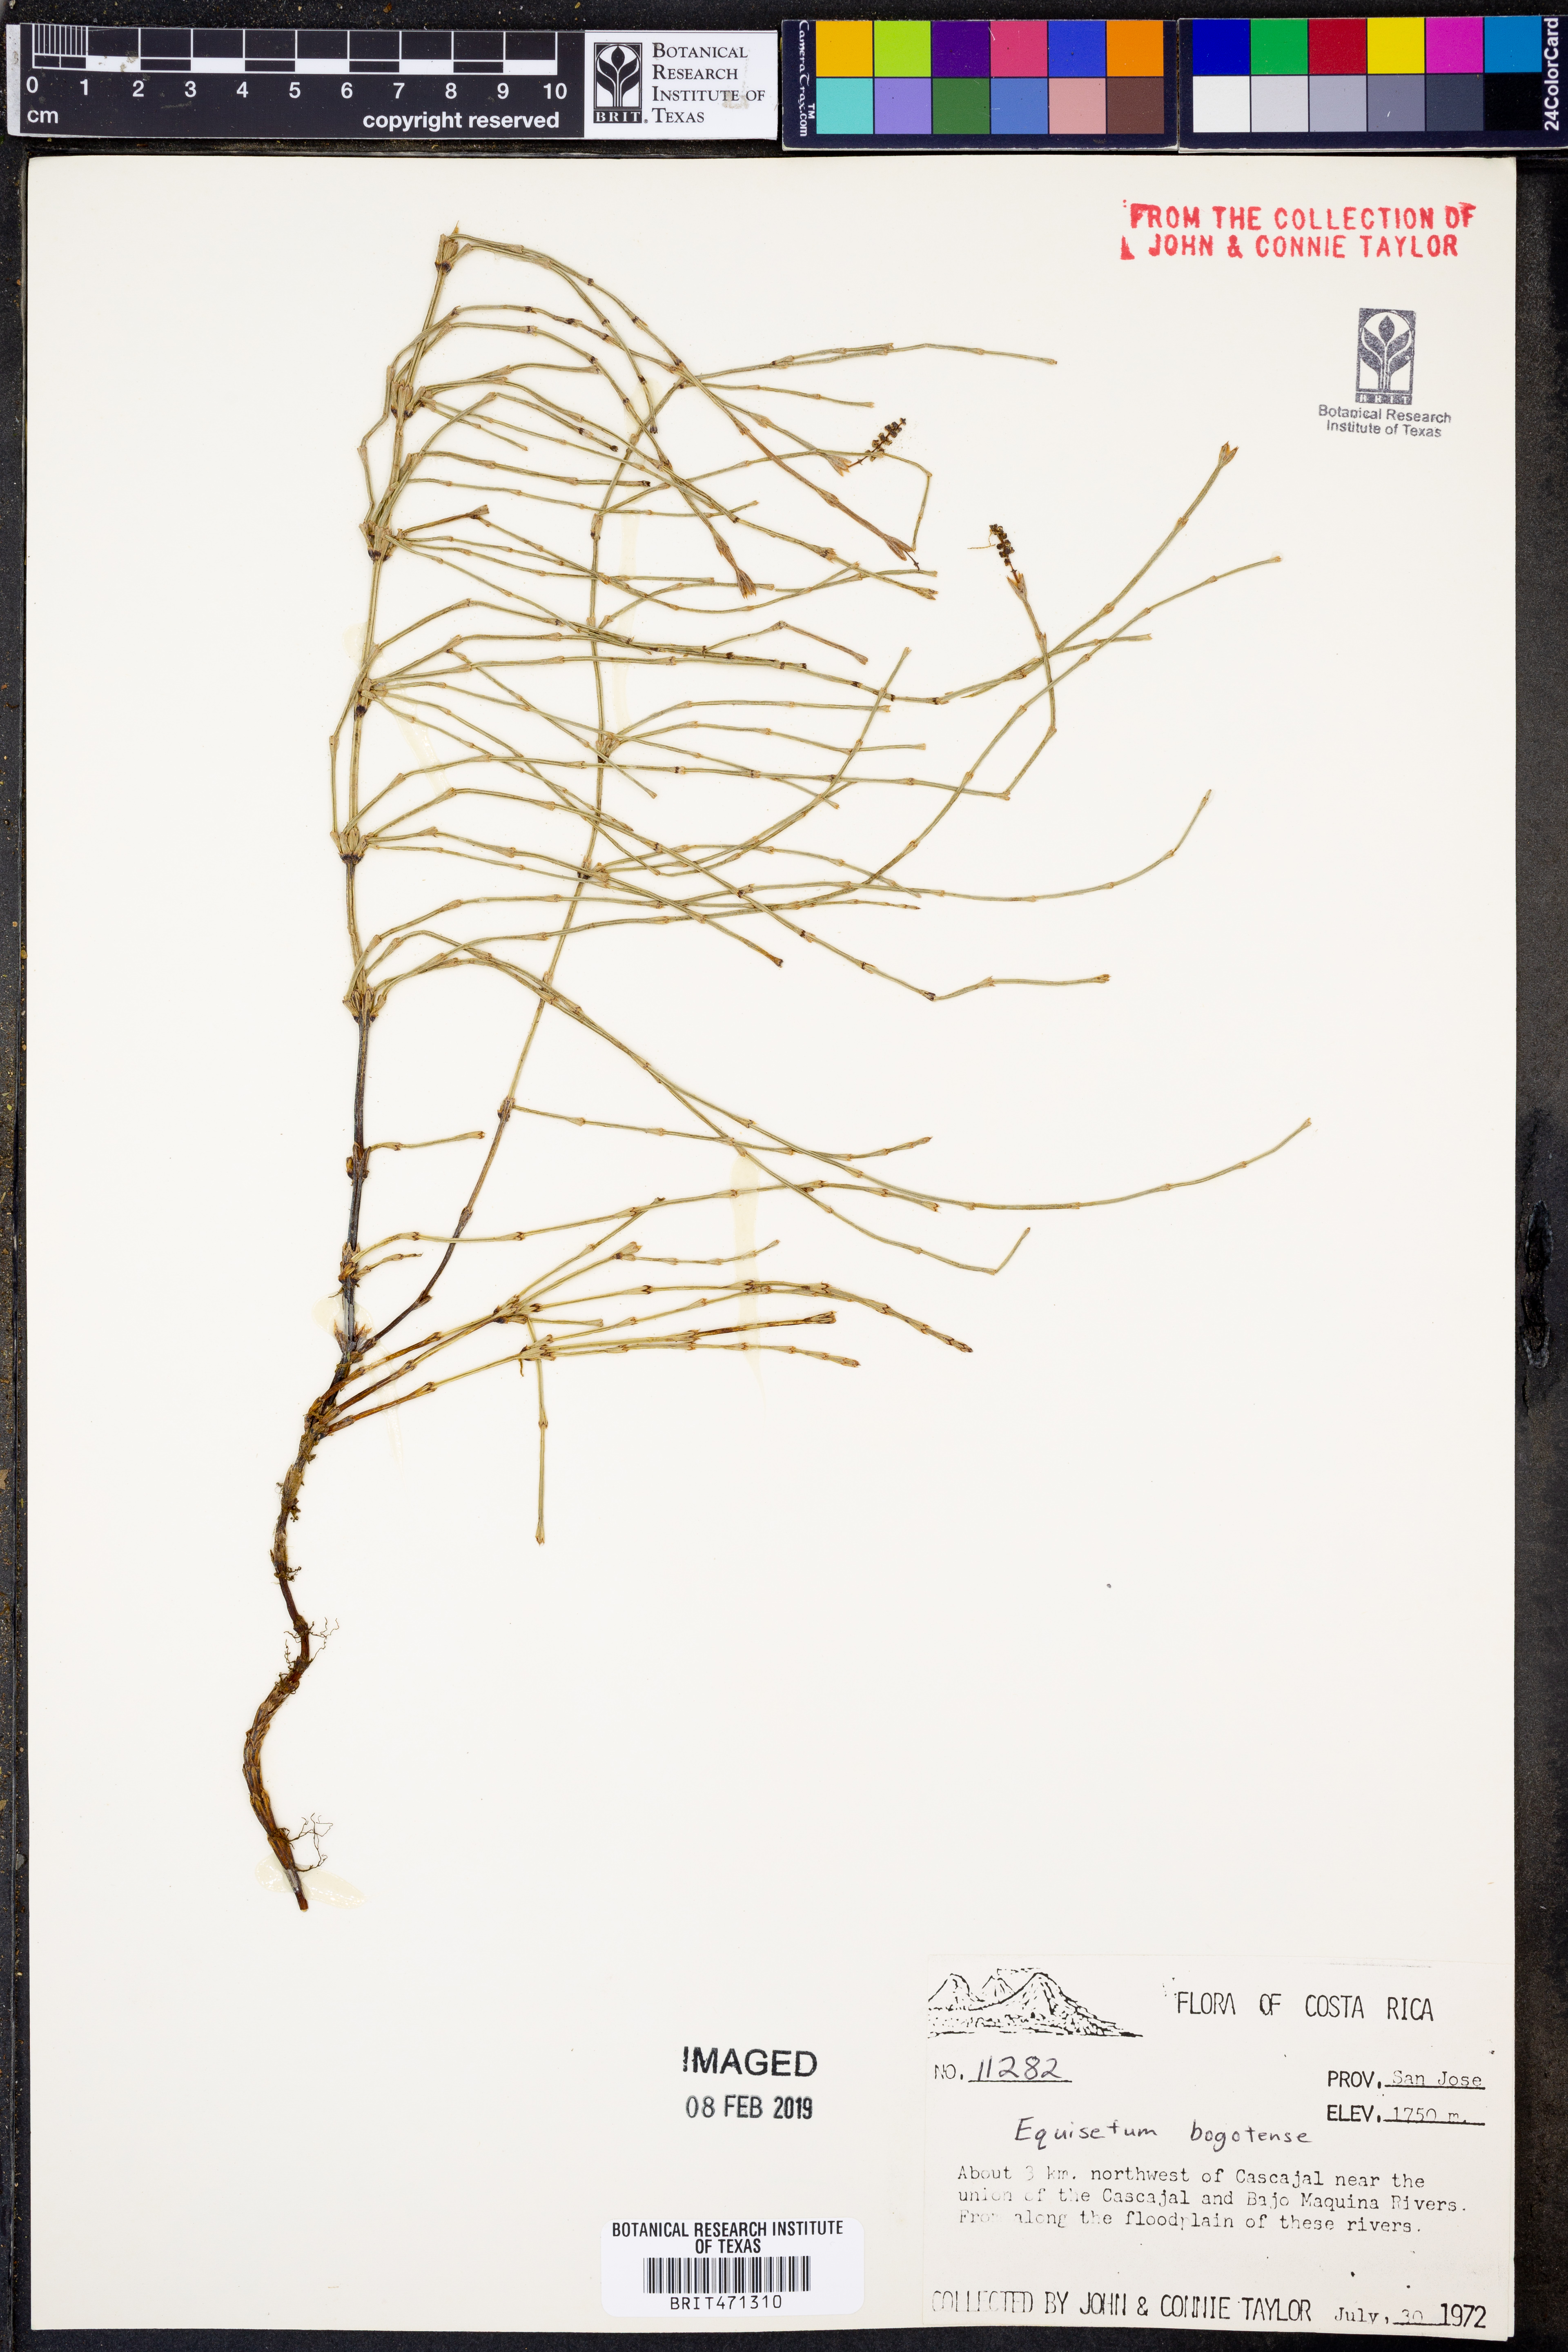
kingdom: Plantae
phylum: Tracheophyta
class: Polypodiopsida
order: Equisetales
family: Equisetaceae
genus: Equisetum
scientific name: Equisetum bogotense
